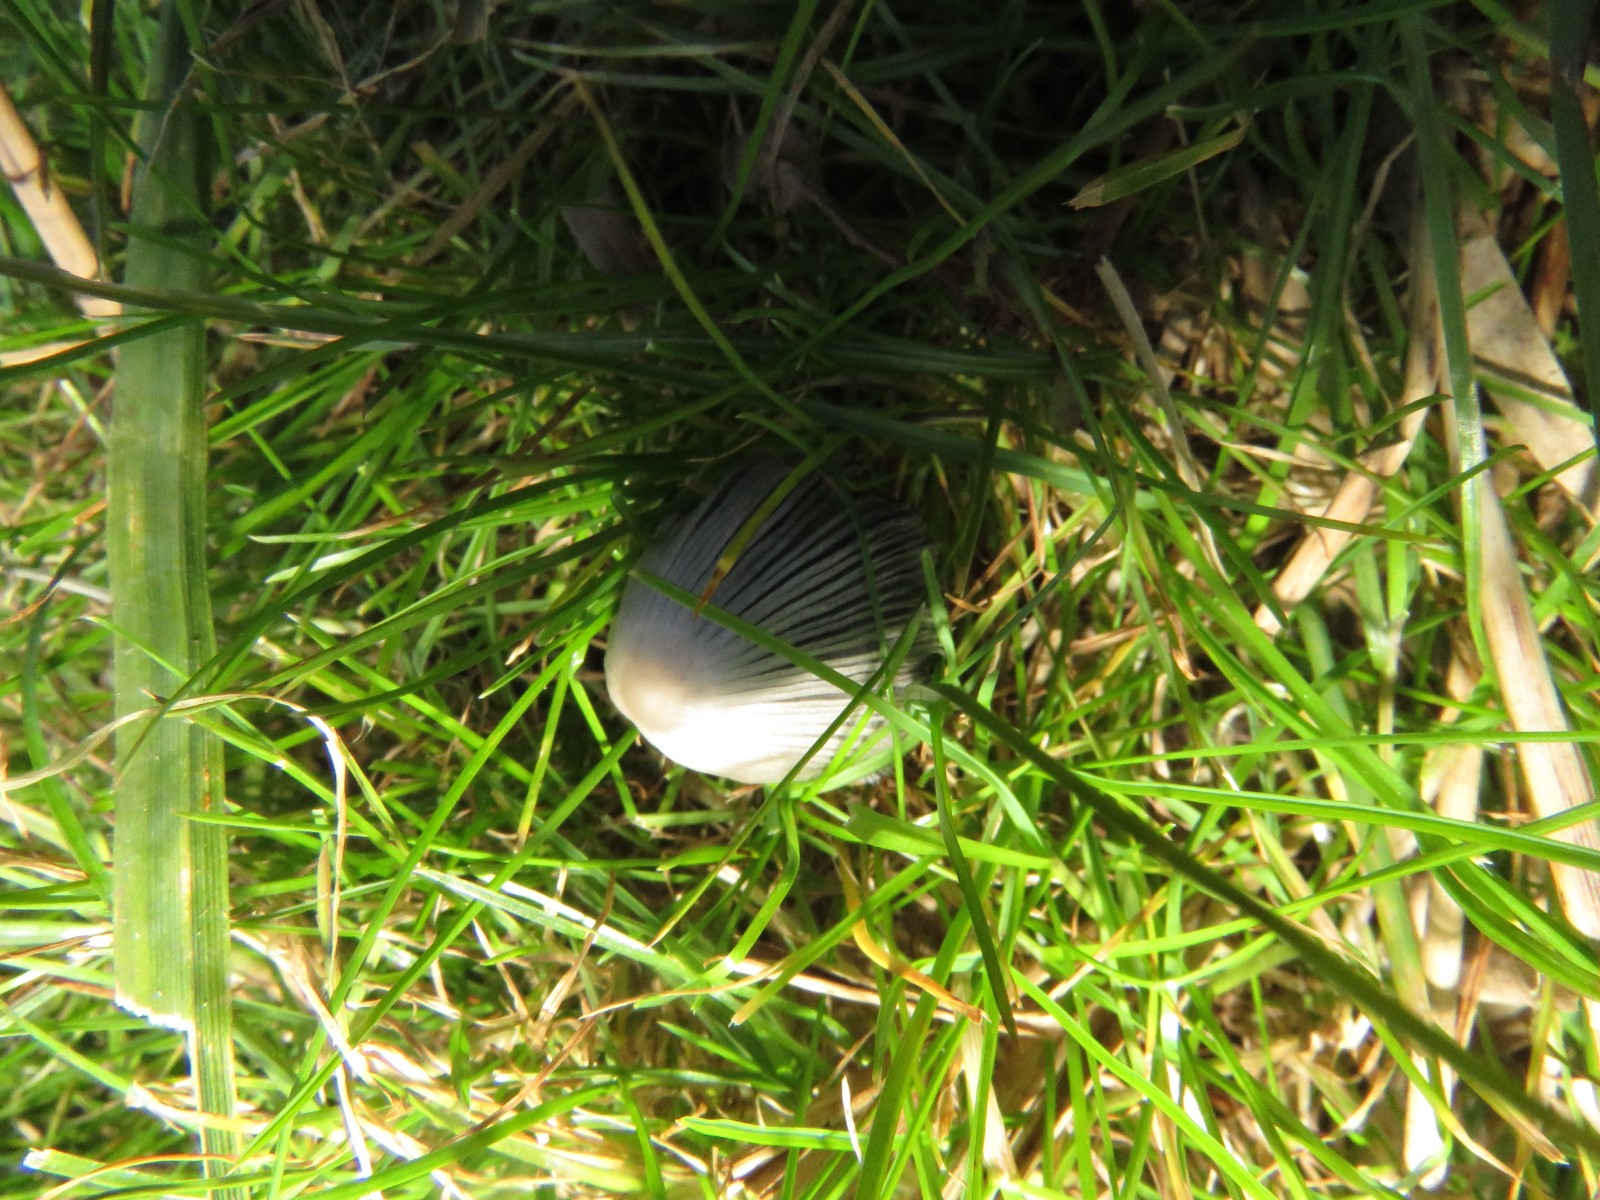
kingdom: Fungi
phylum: Basidiomycota
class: Agaricomycetes
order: Agaricales
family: Psathyrellaceae
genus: Coprinellus
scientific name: Coprinellus
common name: blækhat
